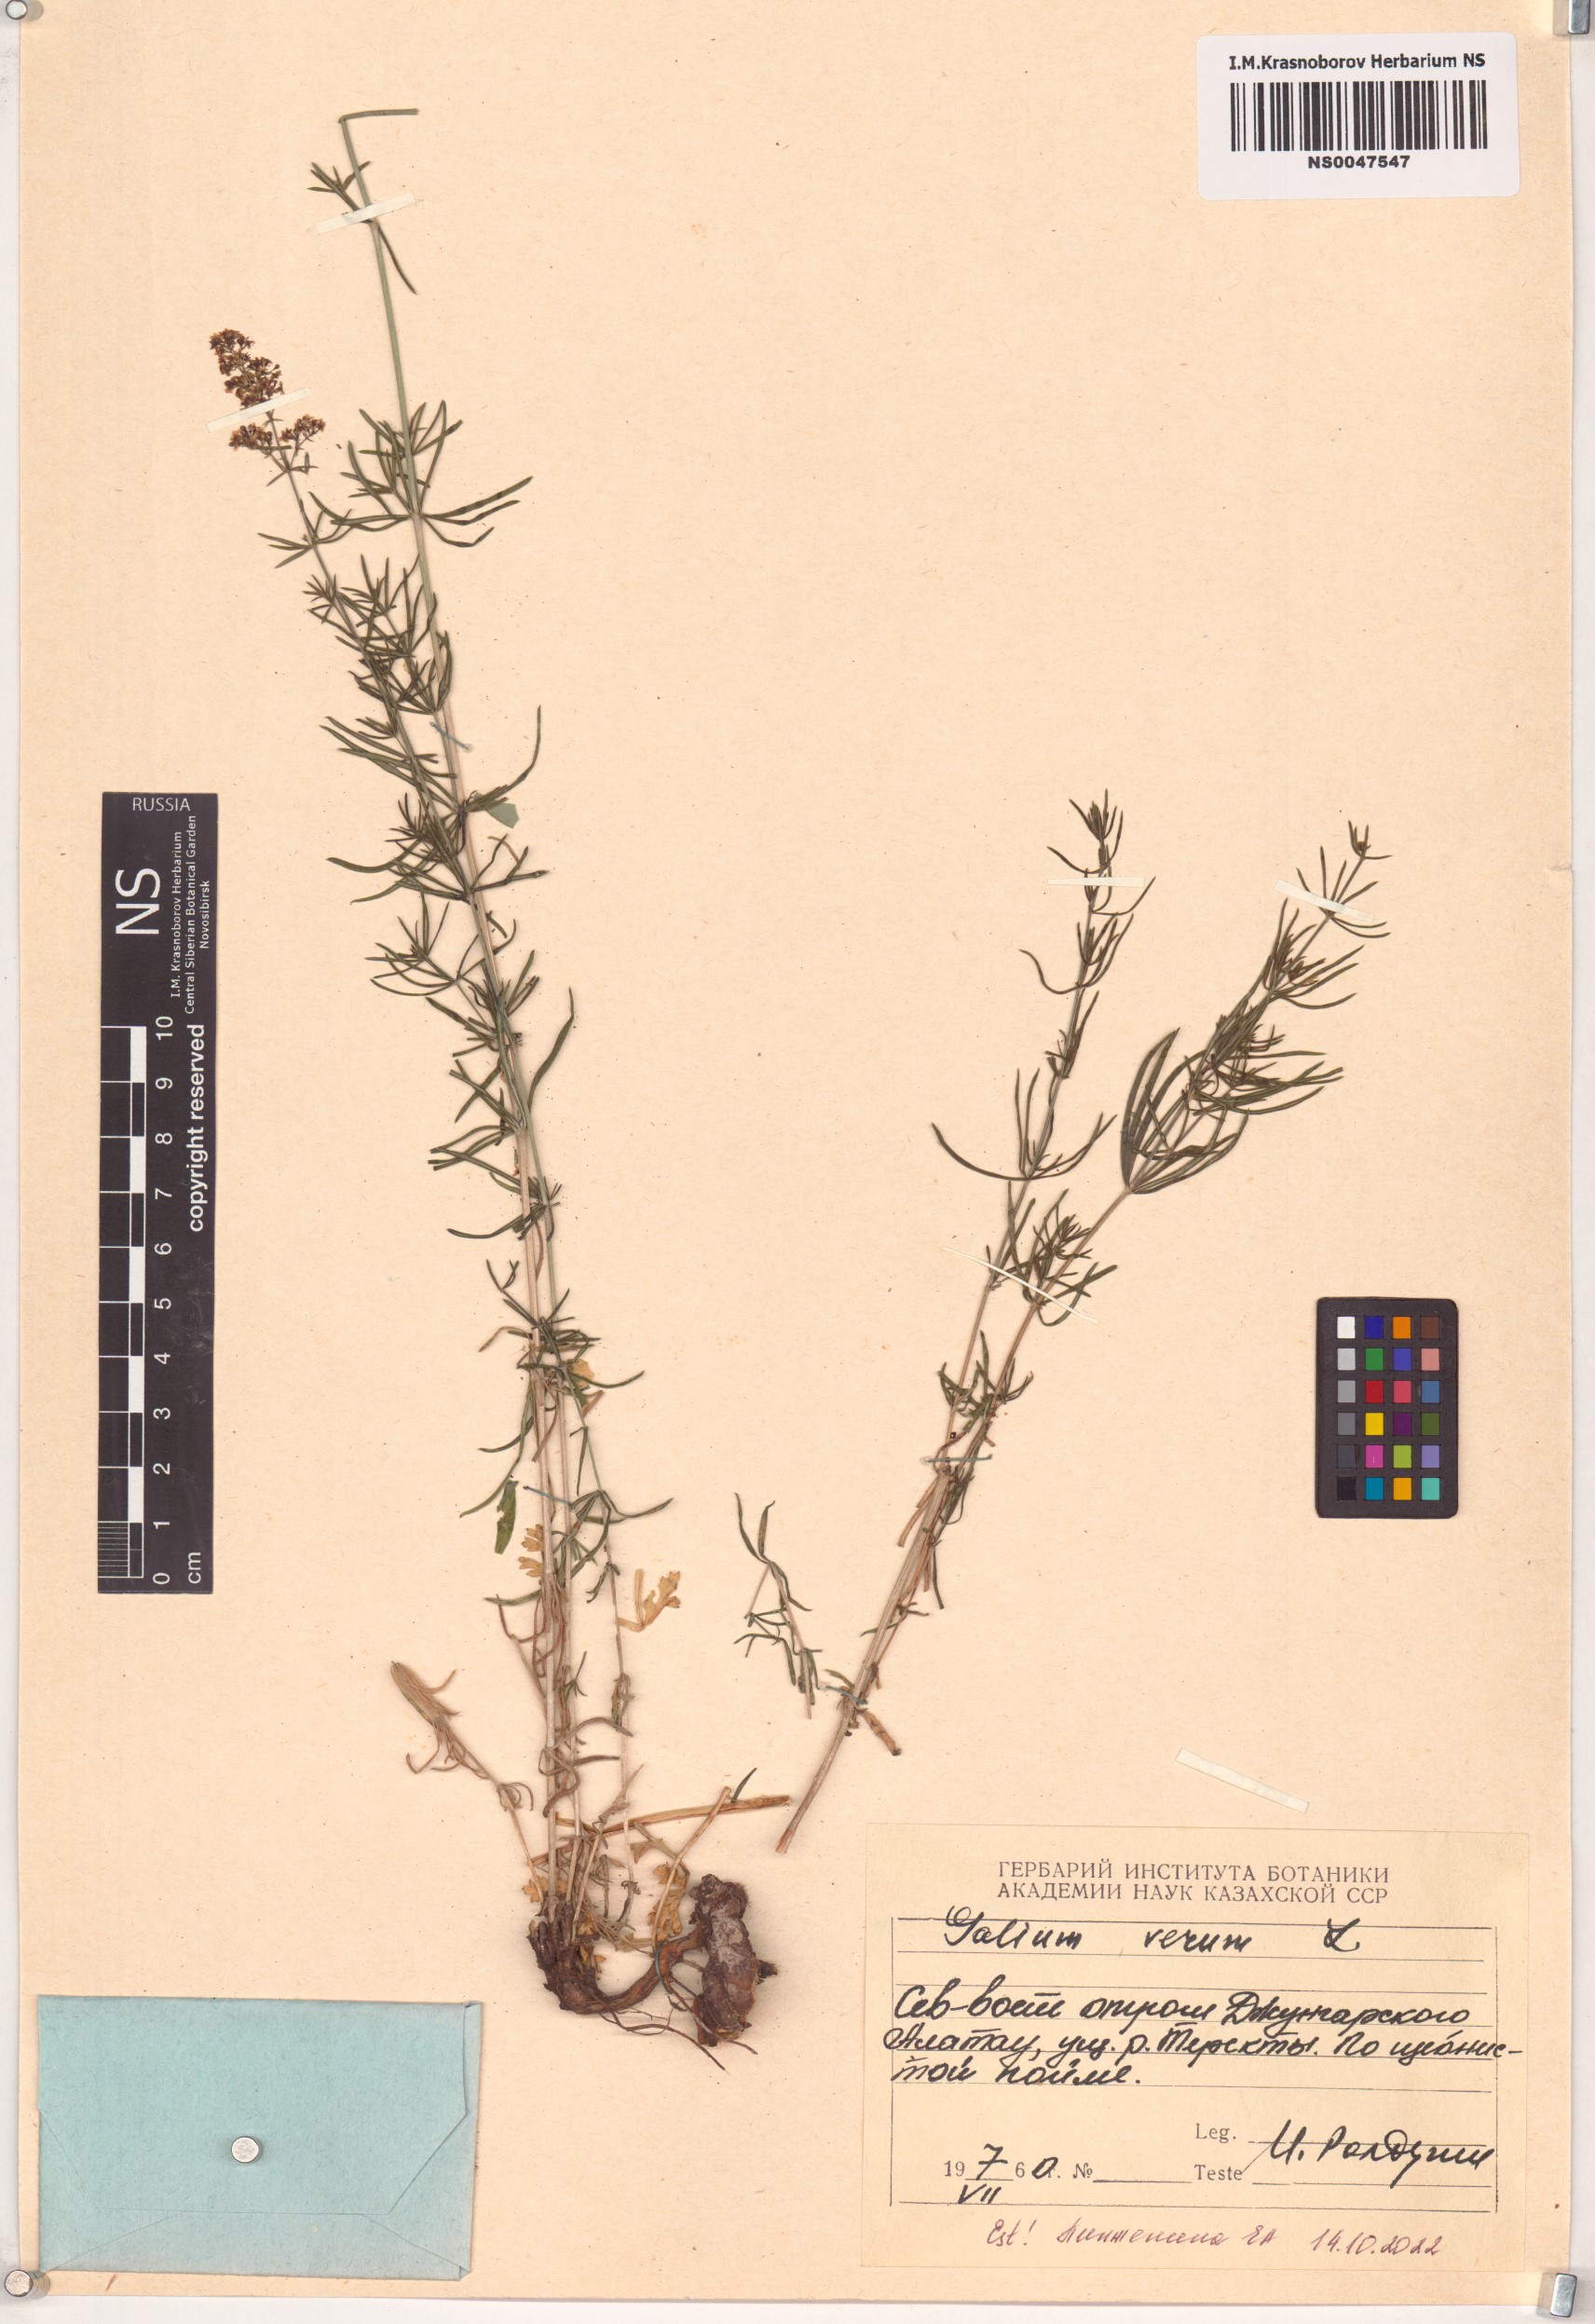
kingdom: Plantae
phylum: Tracheophyta
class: Magnoliopsida
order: Gentianales
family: Rubiaceae
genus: Galium
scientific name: Galium verum
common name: Lady's bedstraw
